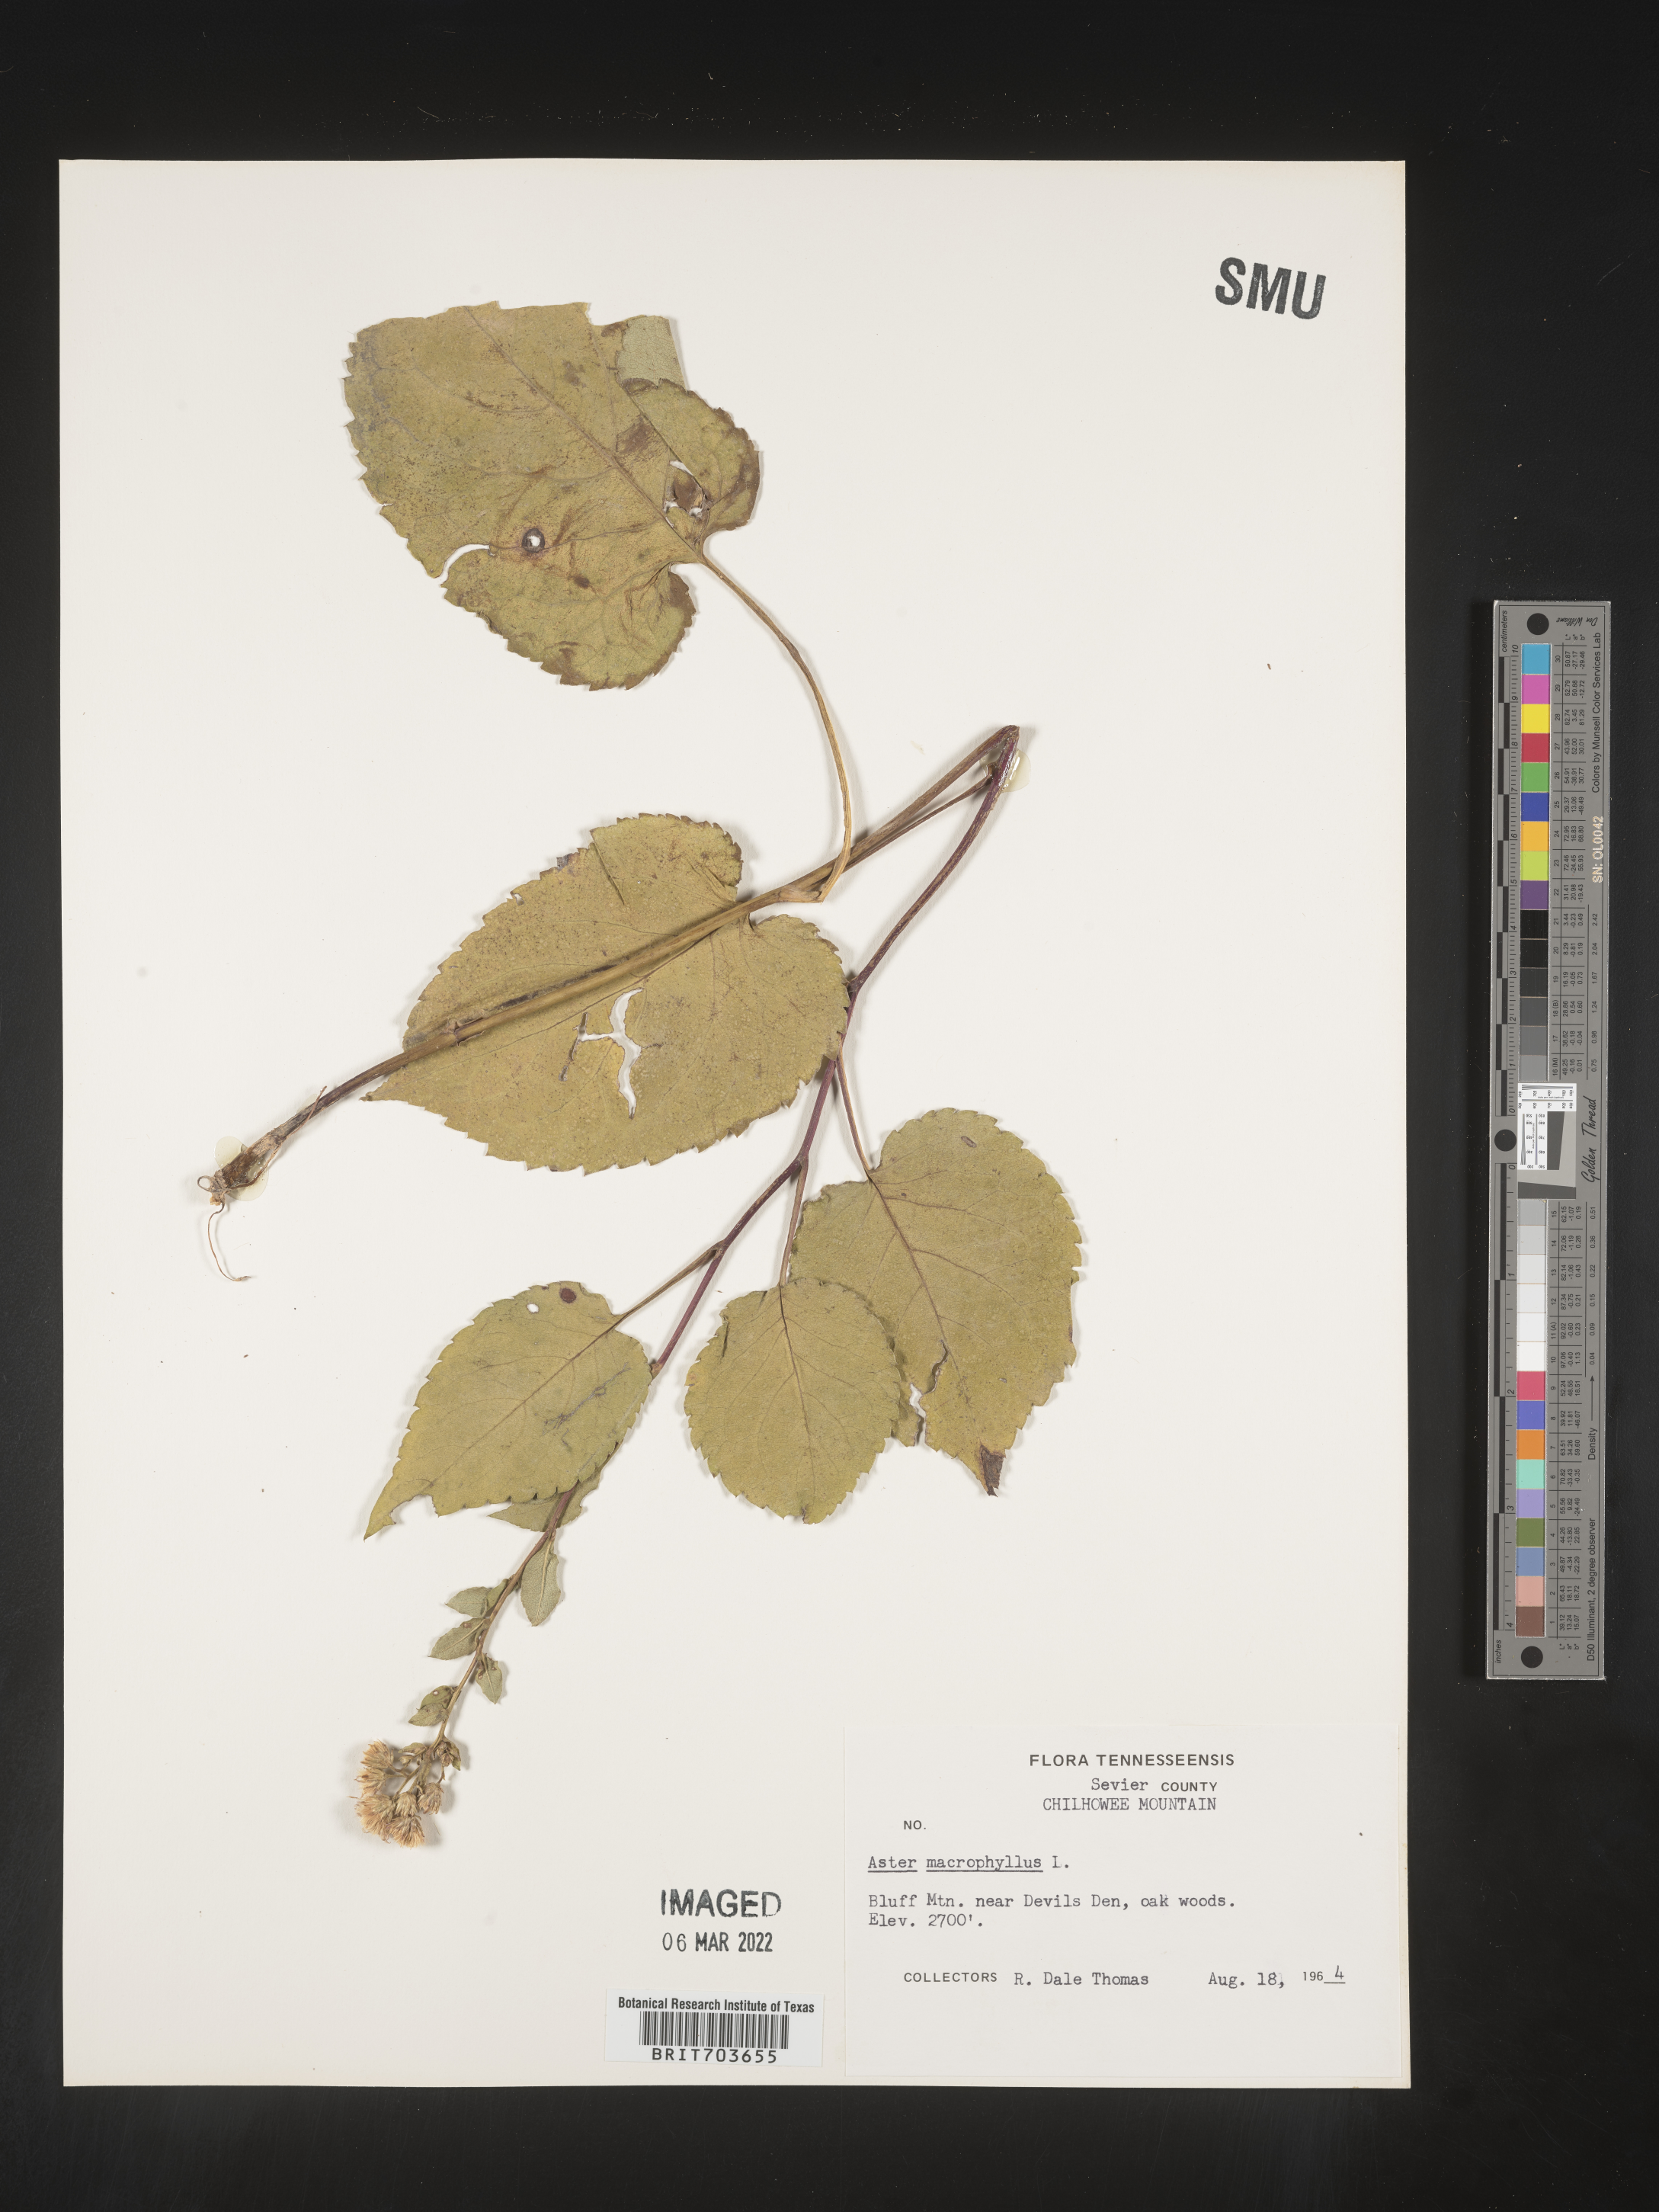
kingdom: Plantae
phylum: Tracheophyta
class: Magnoliopsida
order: Asterales
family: Asteraceae
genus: Eurybia
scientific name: Eurybia macrophylla
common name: Big-leaved aster
